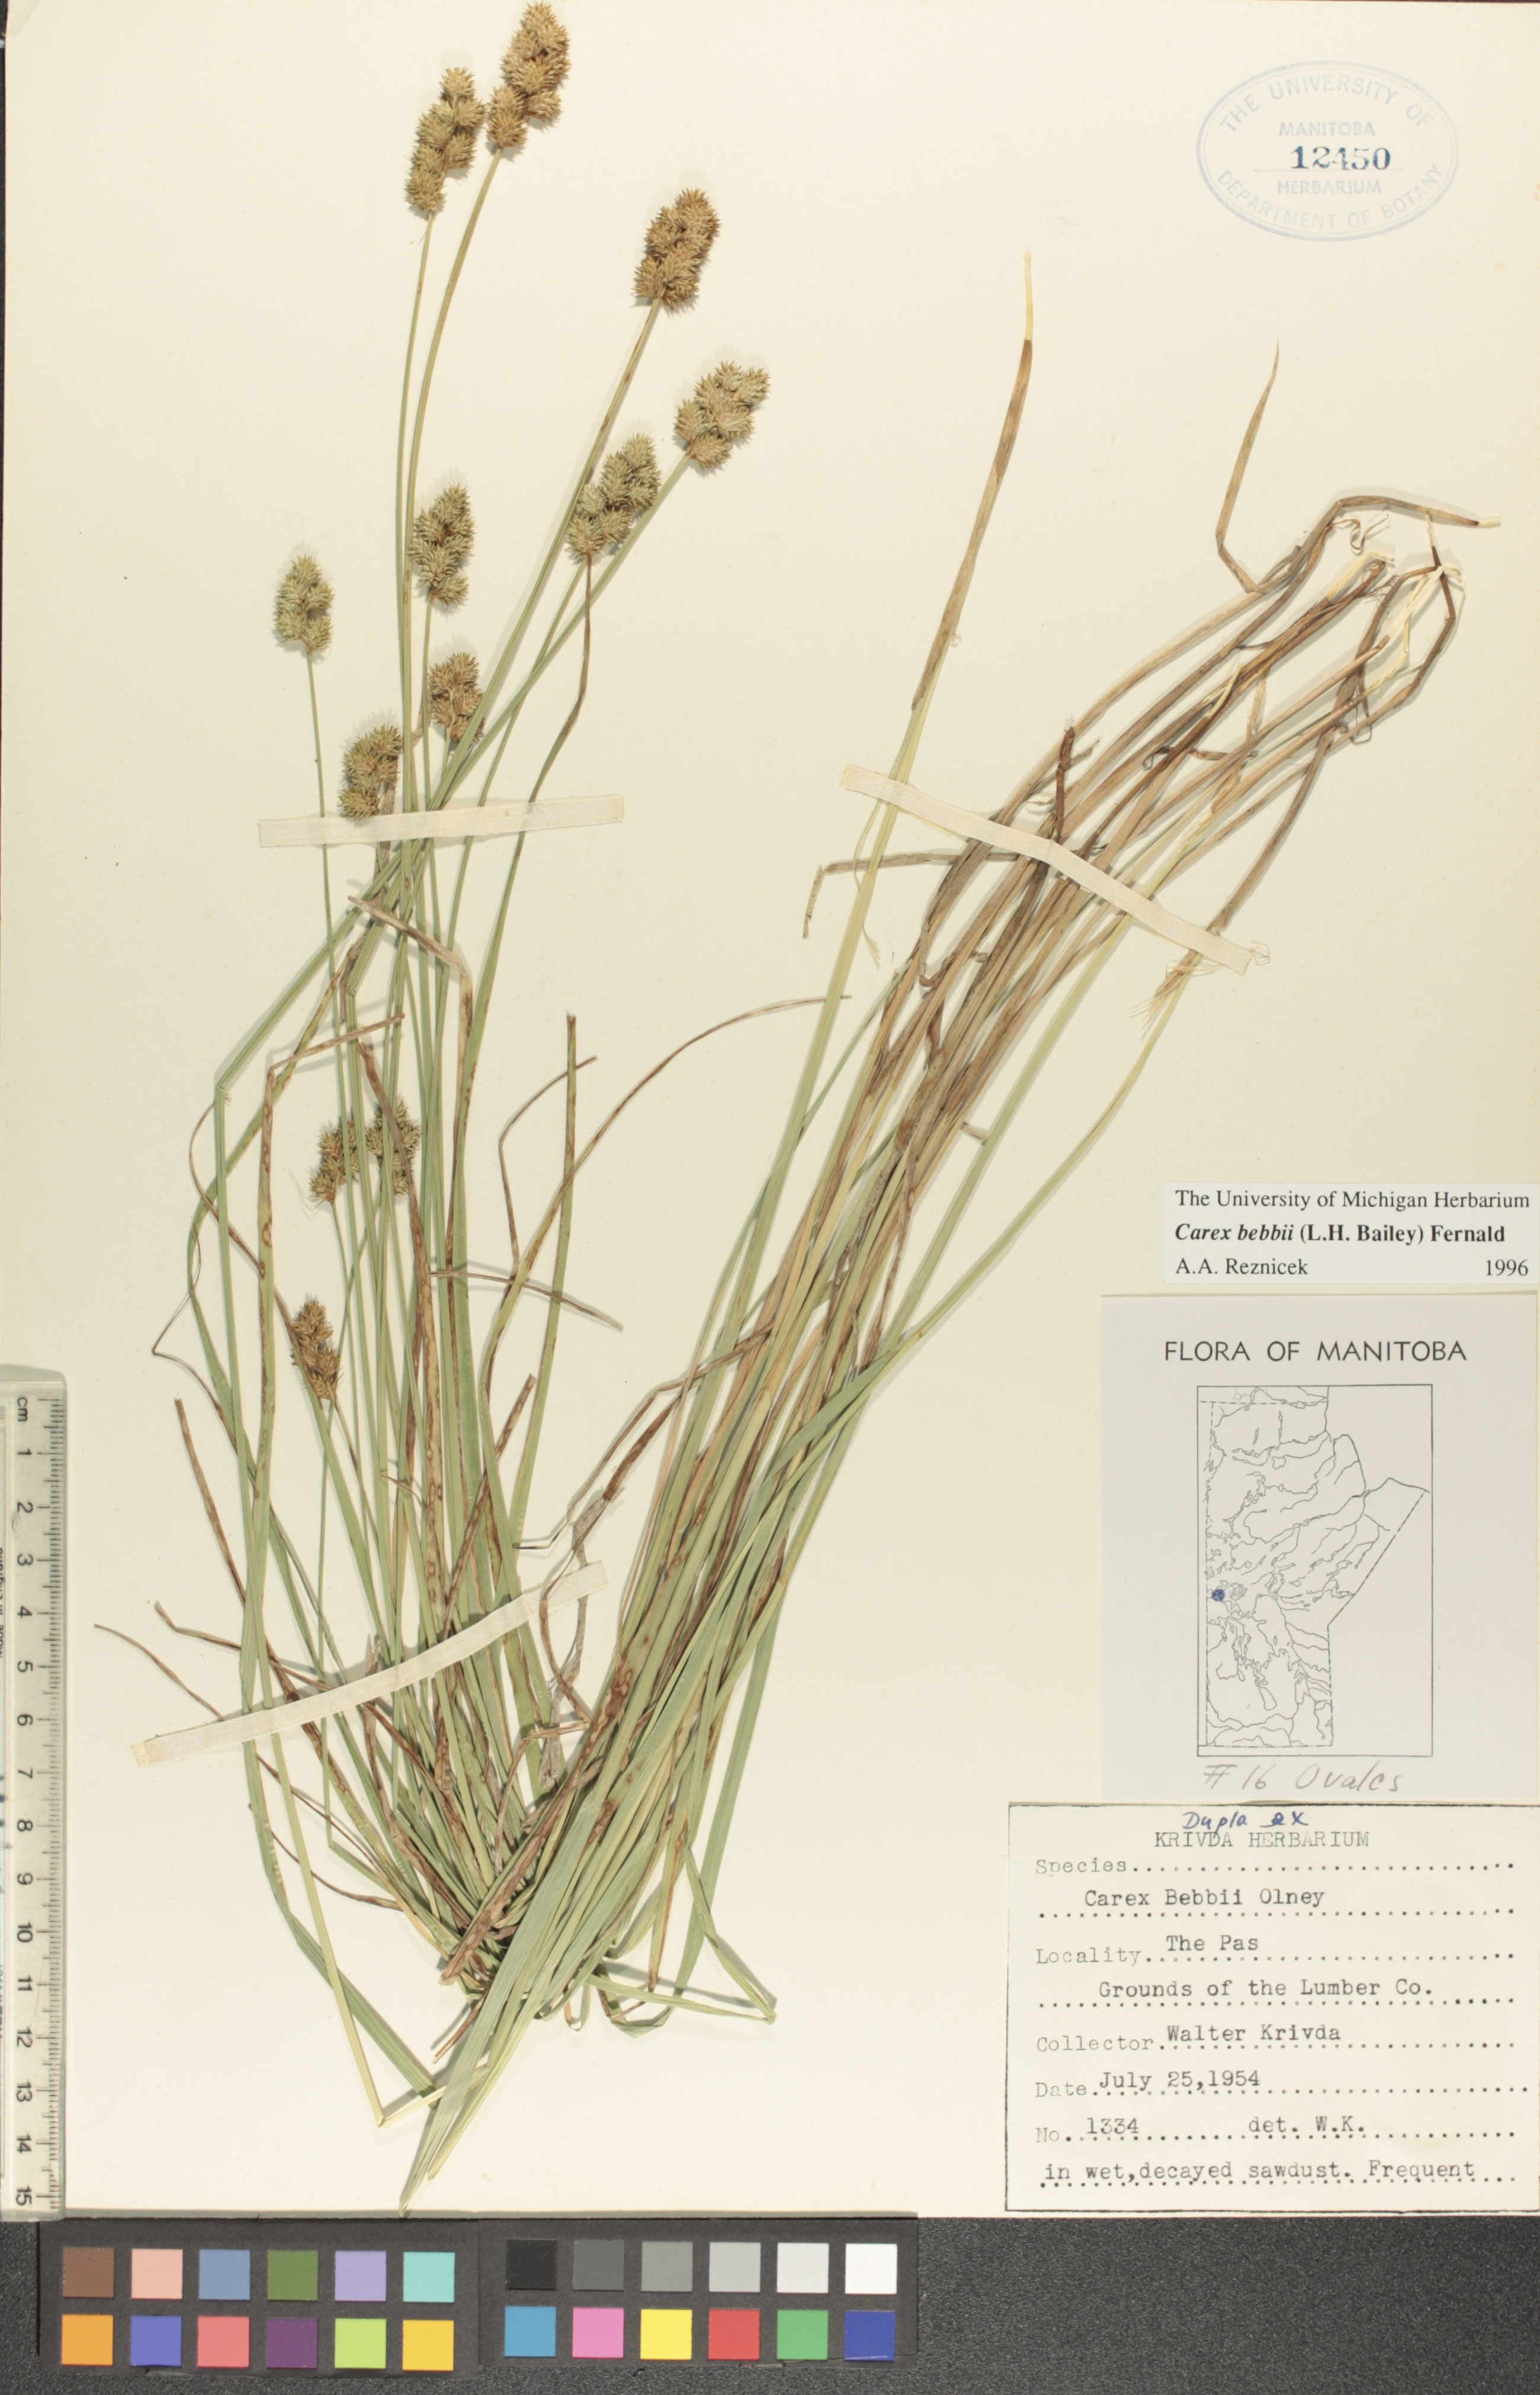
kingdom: Plantae
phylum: Tracheophyta
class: Liliopsida
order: Poales
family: Cyperaceae
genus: Carex
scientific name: Carex bebbii
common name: Bebb's sedge
